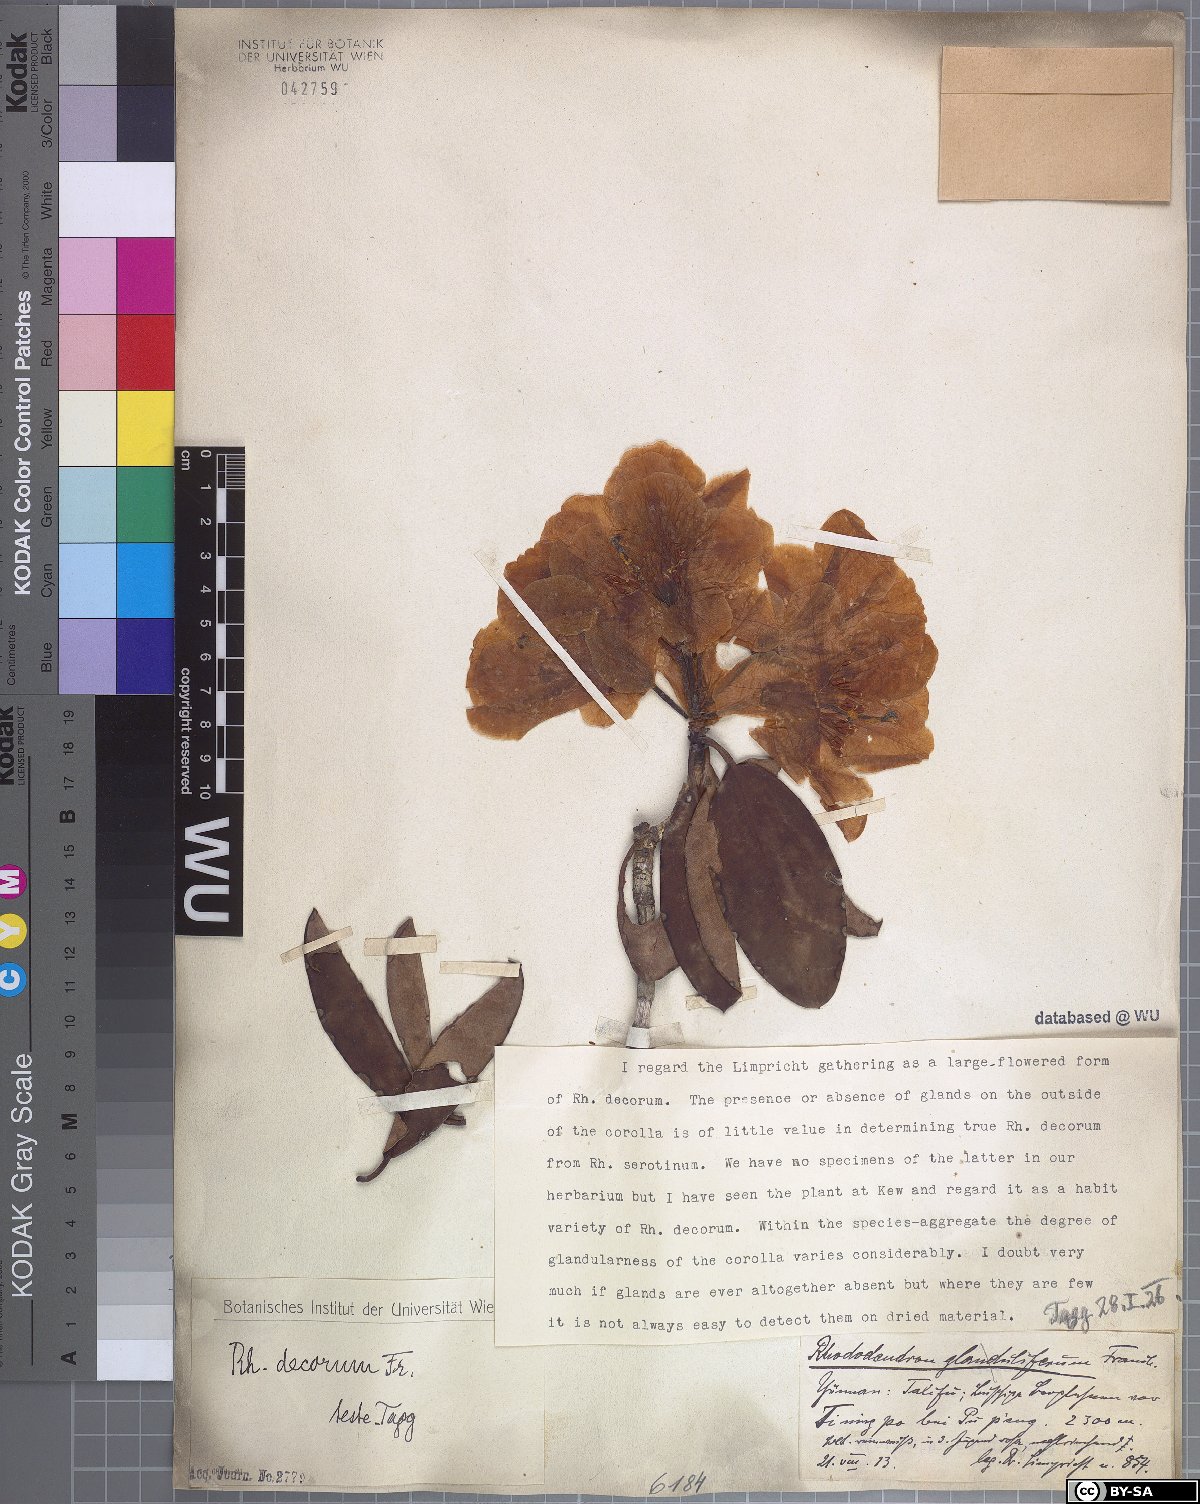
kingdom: Plantae
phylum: Tracheophyta
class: Magnoliopsida
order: Ericales
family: Ericaceae
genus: Rhododendron
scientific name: Rhododendron decorum
